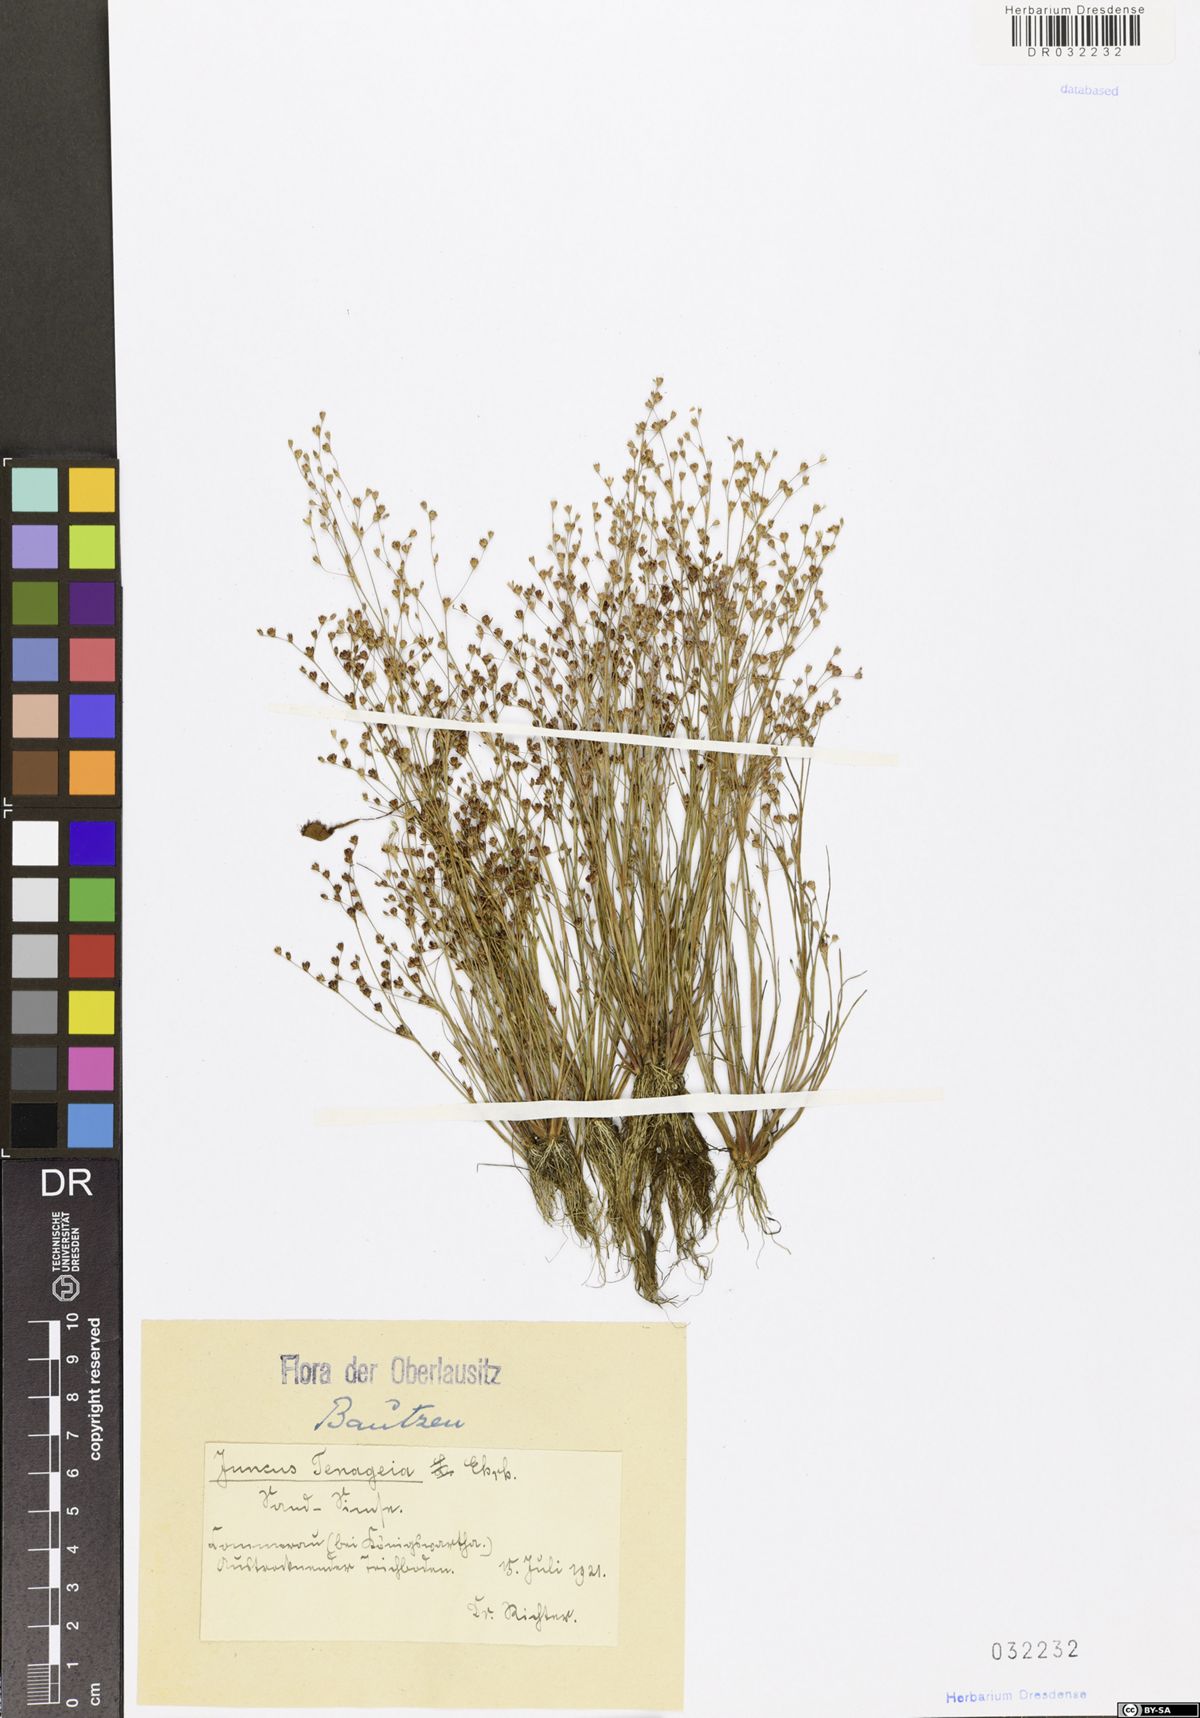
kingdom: Plantae
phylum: Tracheophyta
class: Liliopsida
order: Poales
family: Juncaceae
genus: Juncus
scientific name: Juncus tenageia
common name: Sand rush
